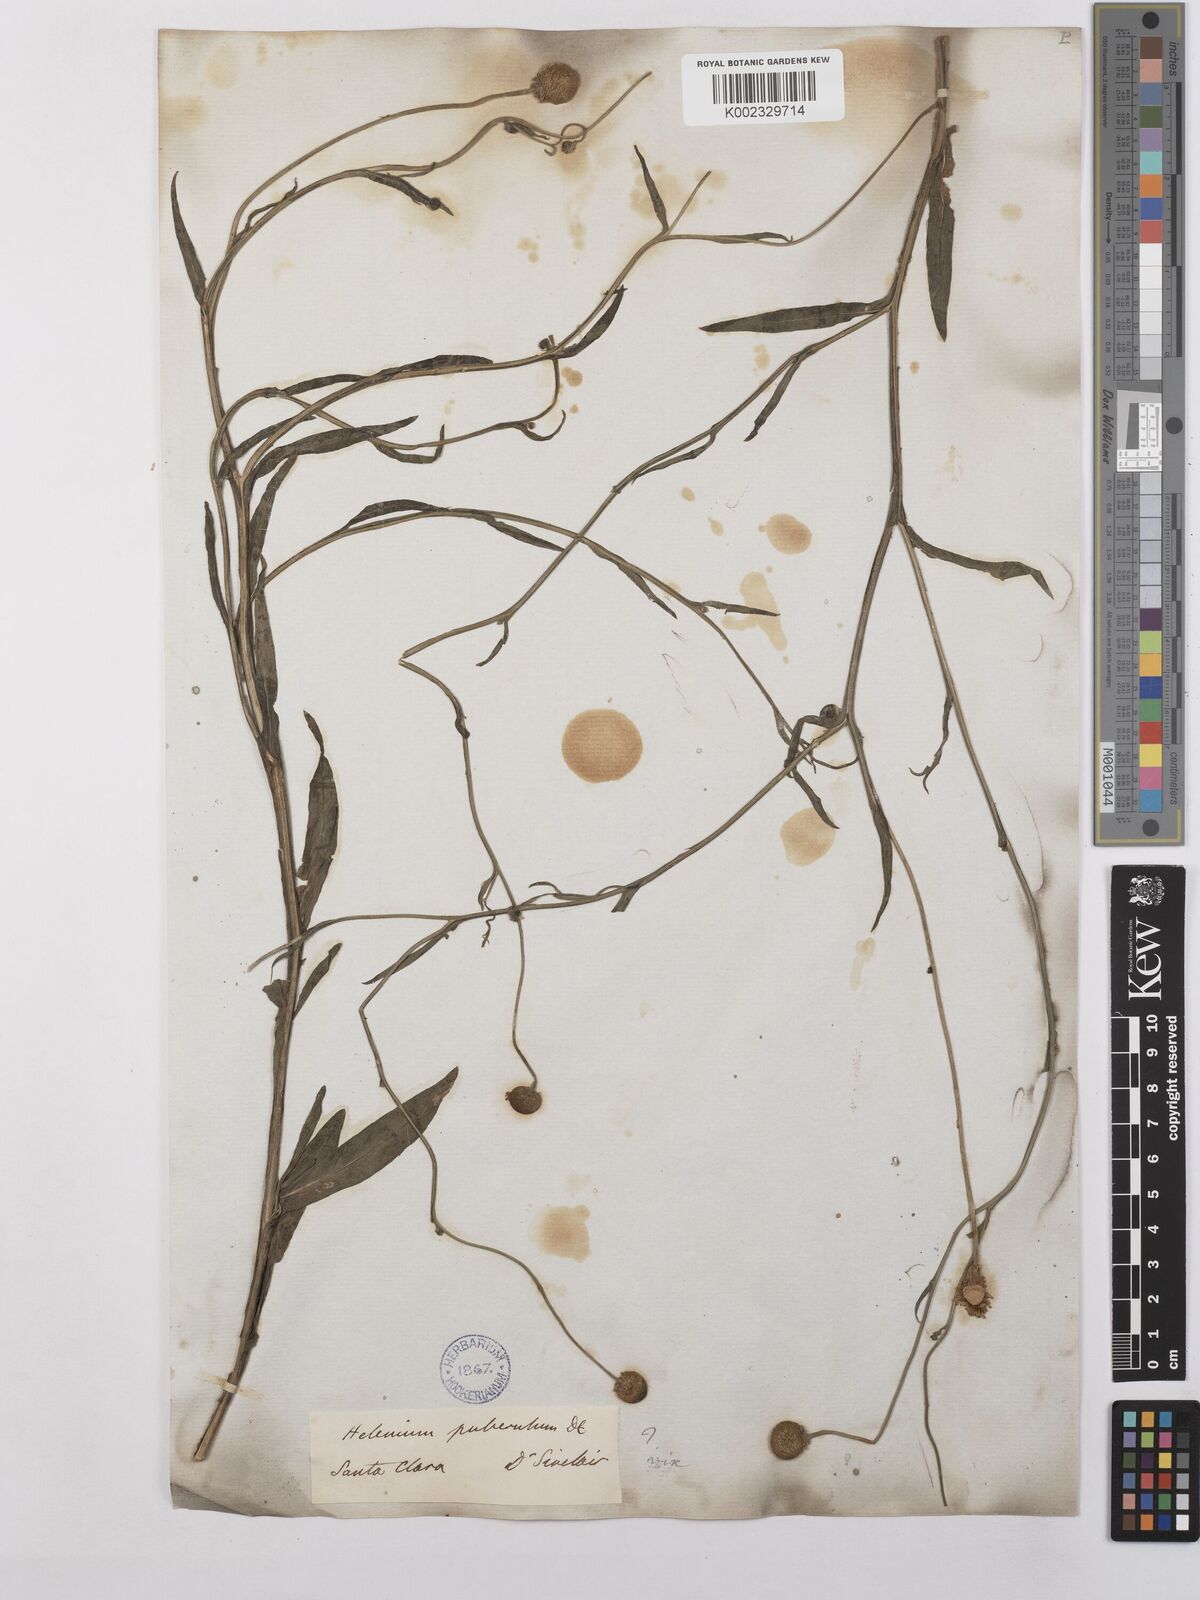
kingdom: Plantae
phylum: Tracheophyta
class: Magnoliopsida
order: Asterales
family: Asteraceae
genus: Helenium
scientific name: Helenium puberulum
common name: Sneezewort
